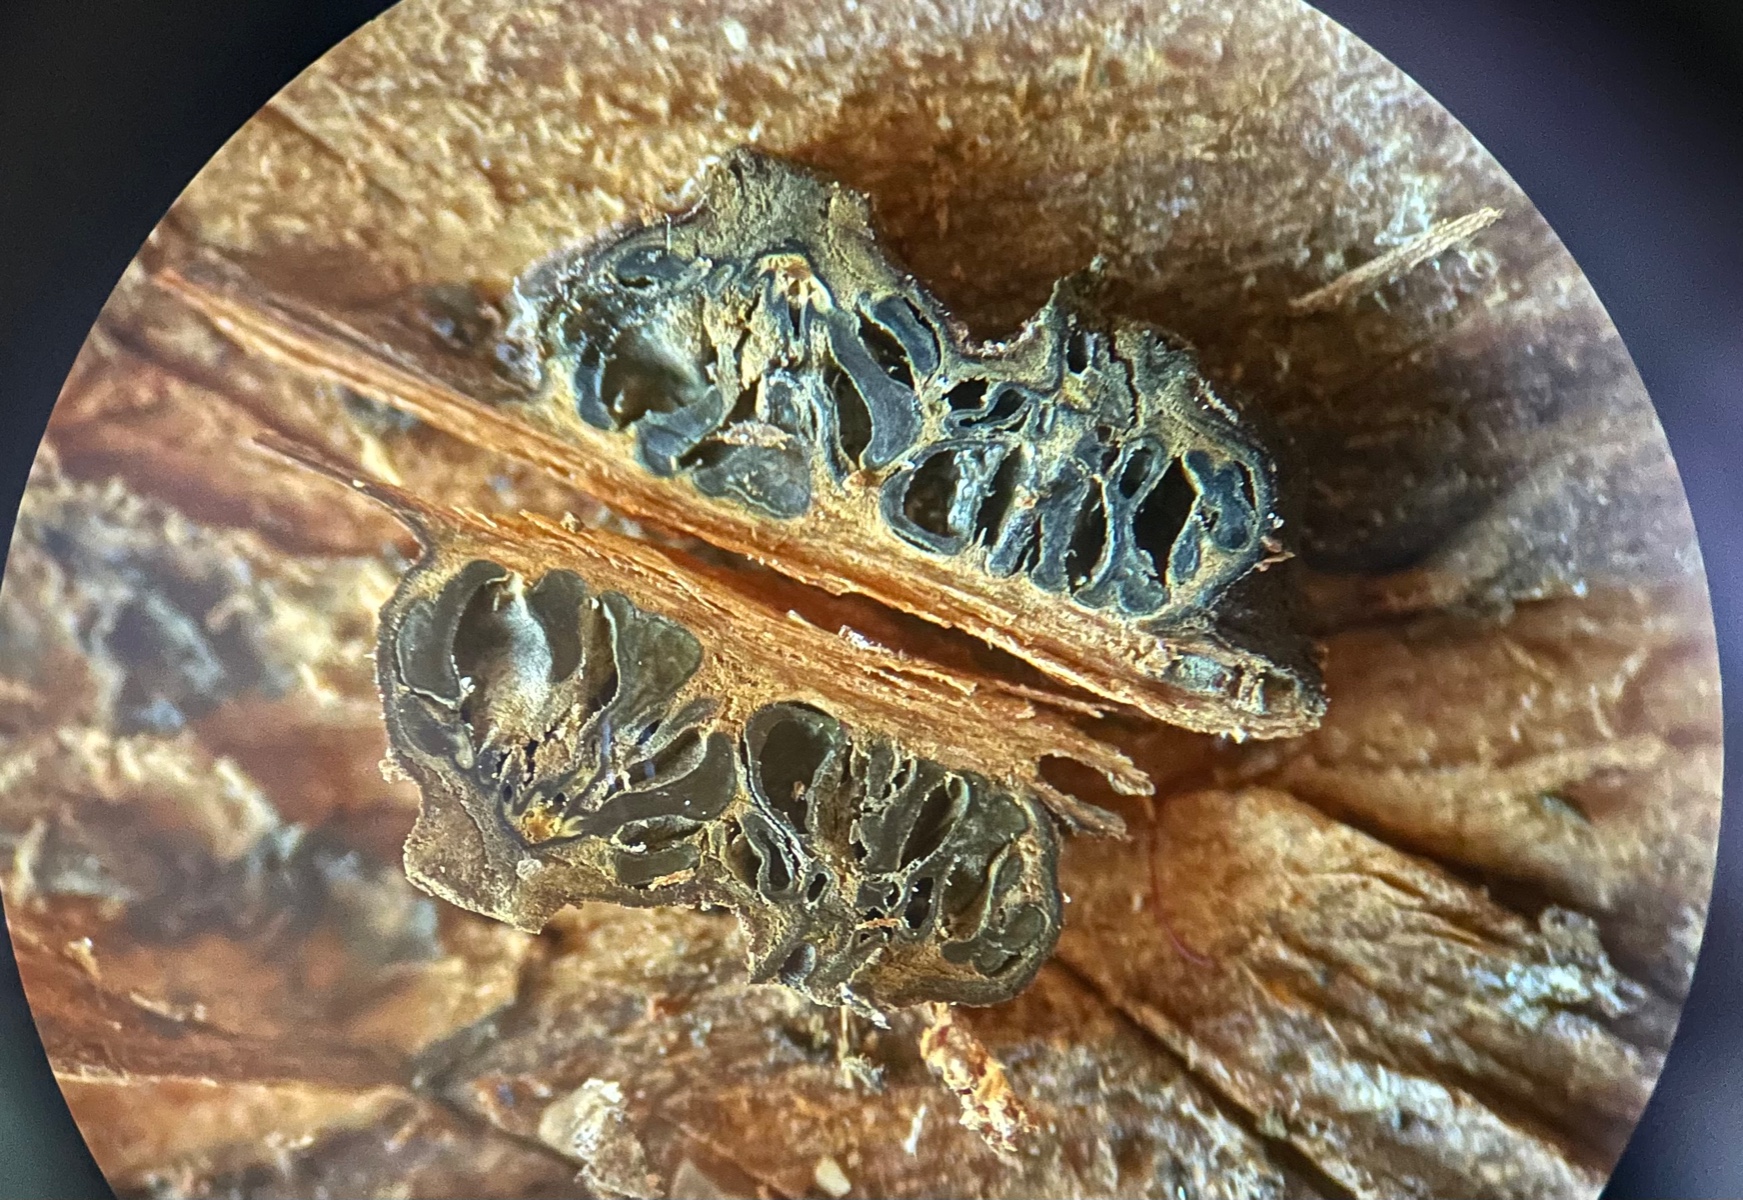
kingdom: Fungi
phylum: Ascomycota
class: Sordariomycetes
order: Diaporthales
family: Valsaceae
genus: Cytospora
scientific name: Cytospora
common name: kulknippe
